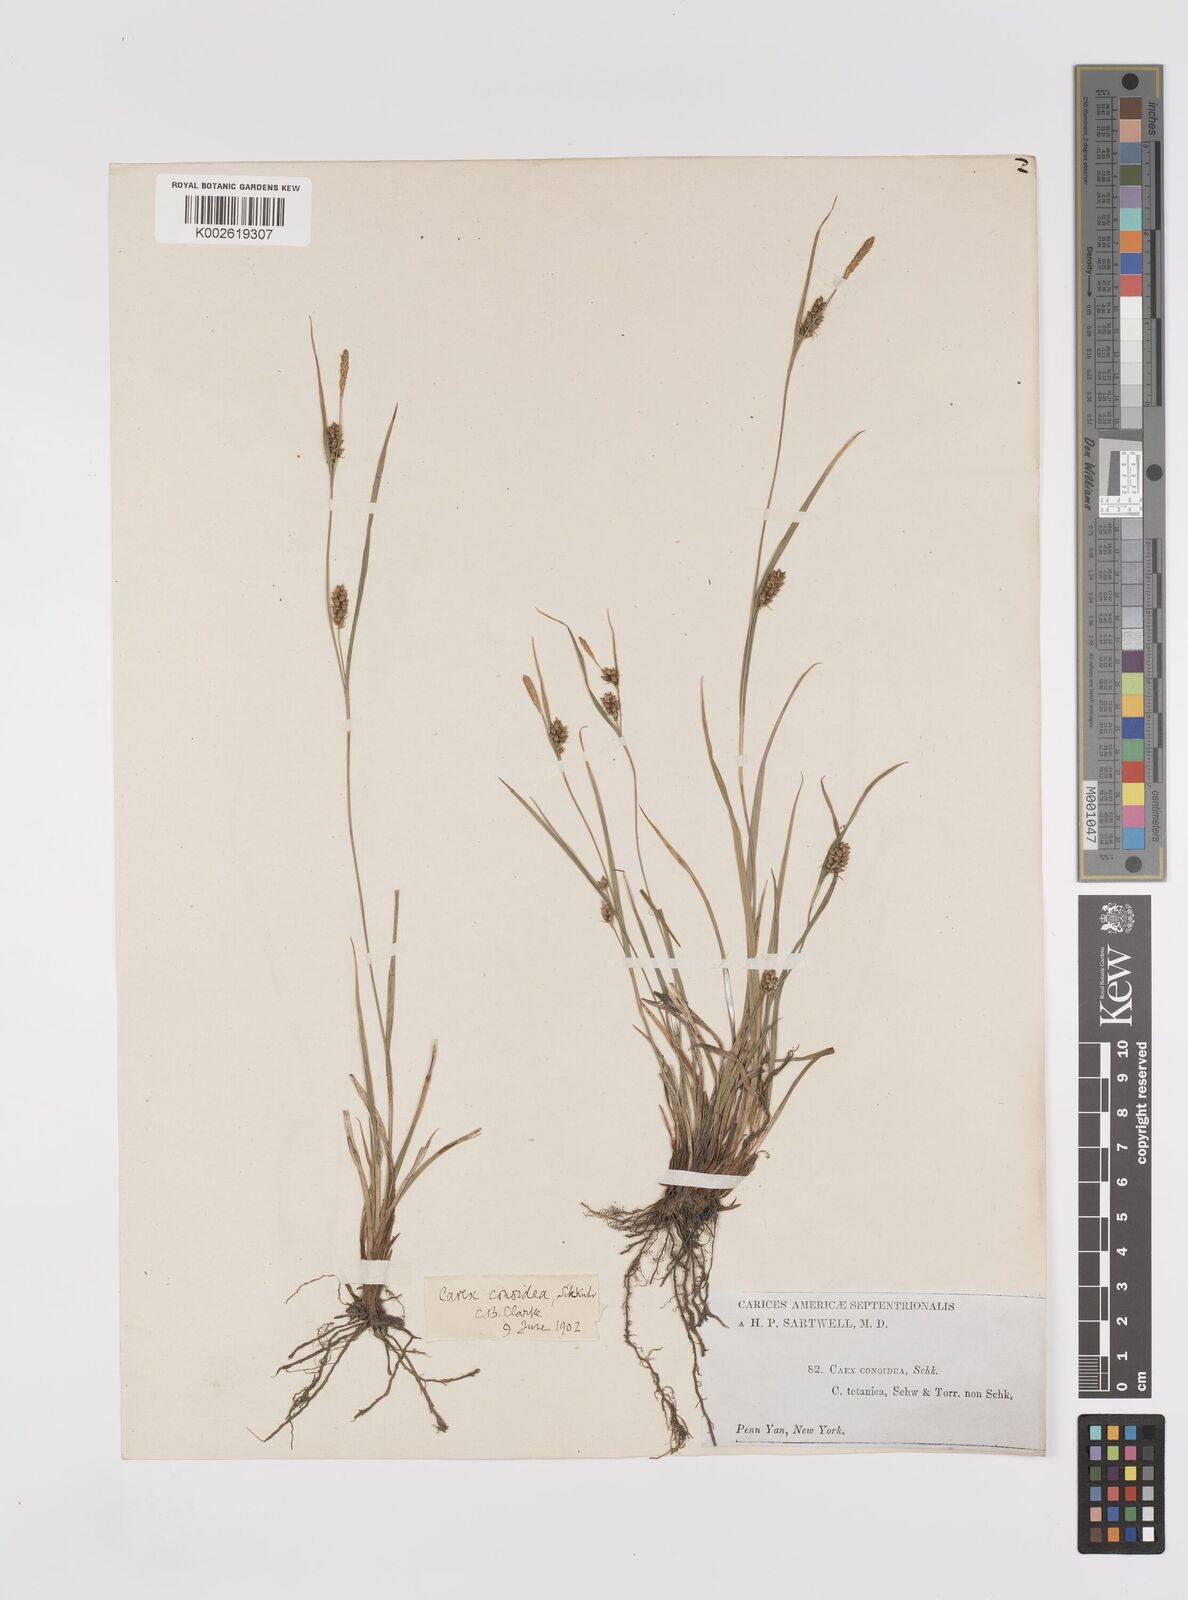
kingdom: Plantae
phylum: Tracheophyta
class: Liliopsida
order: Poales
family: Cyperaceae
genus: Carex
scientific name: Carex conoidea
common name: Cone shaped sedge
